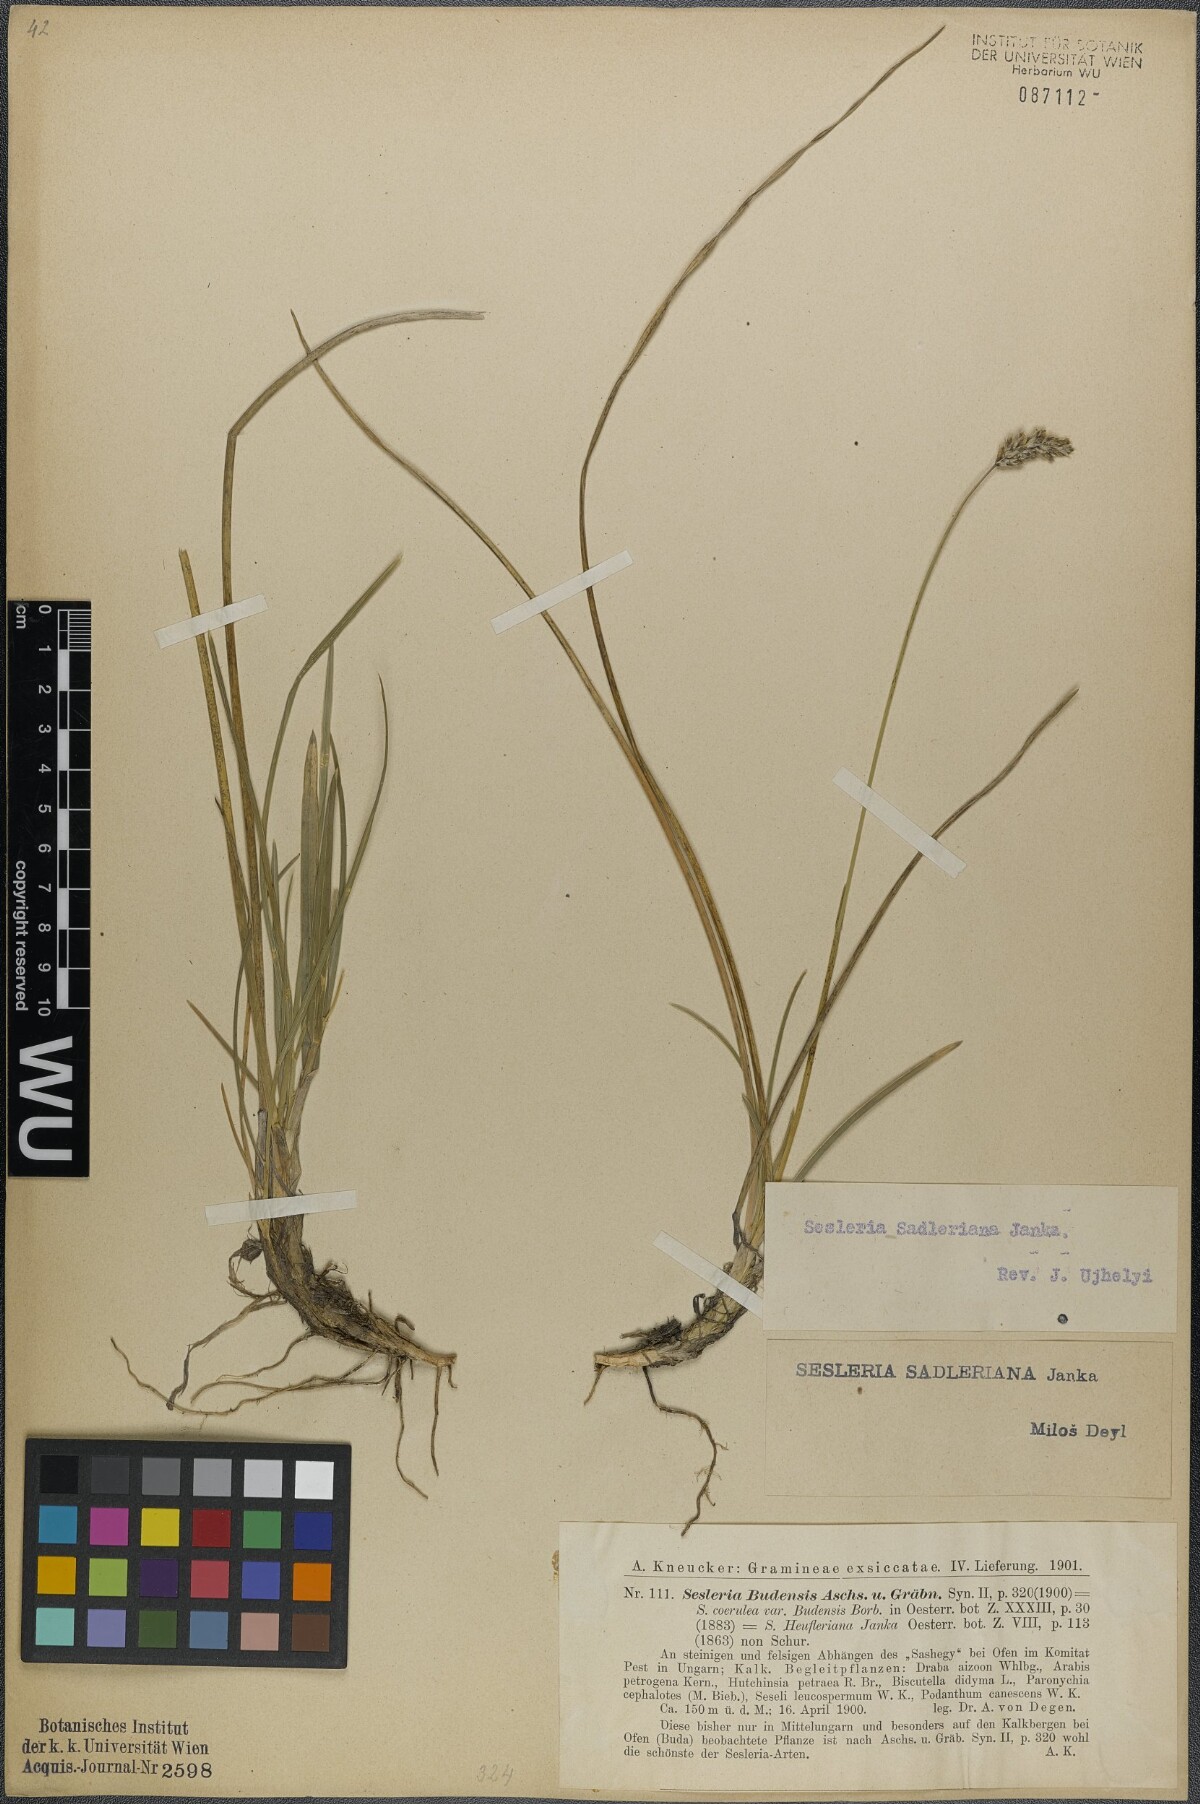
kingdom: Plantae
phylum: Tracheophyta
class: Liliopsida
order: Poales
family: Poaceae
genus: Sesleria
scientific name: Sesleria sadleriana
